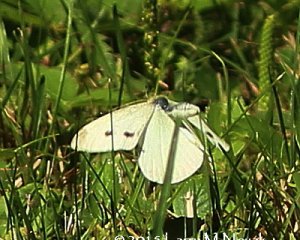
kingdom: Animalia
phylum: Arthropoda
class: Insecta
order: Lepidoptera
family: Pieridae
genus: Pieris
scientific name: Pieris rapae
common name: Cabbage White
